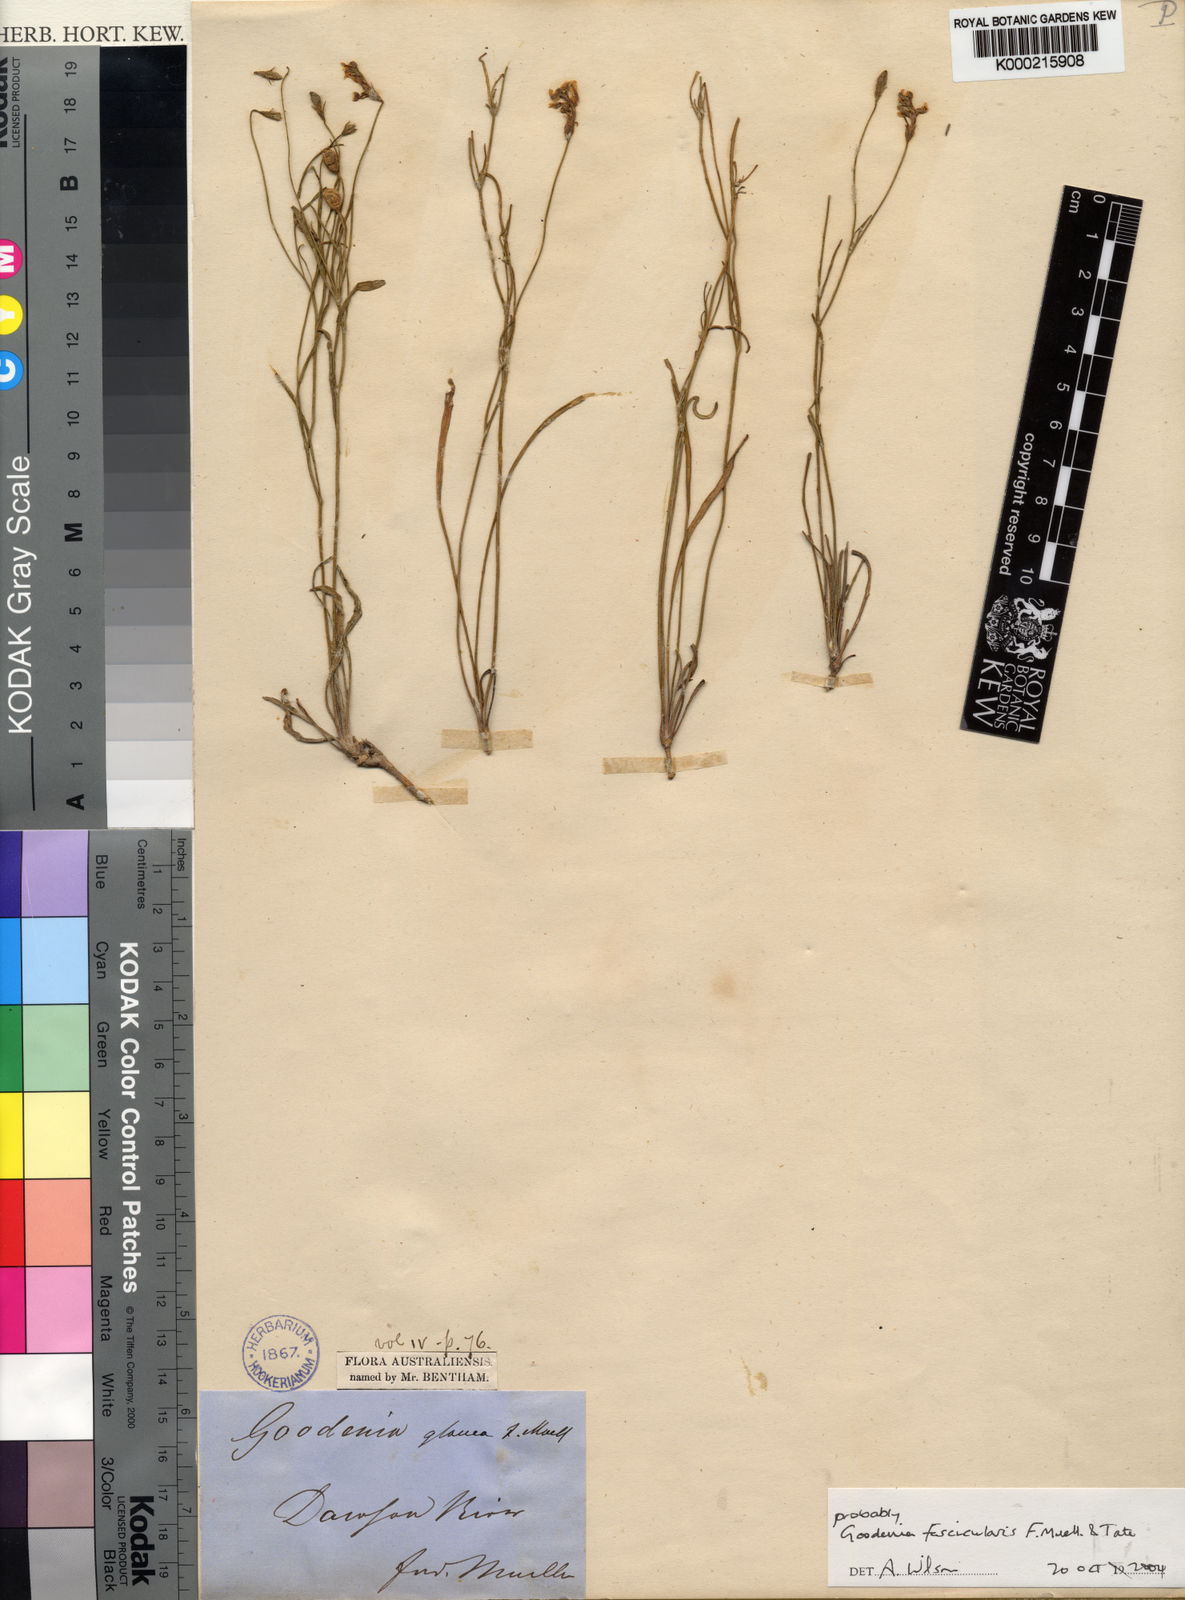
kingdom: Plantae
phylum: Tracheophyta
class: Magnoliopsida
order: Asterales
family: Goodeniaceae
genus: Goodenia
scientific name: Goodenia fascicularis
